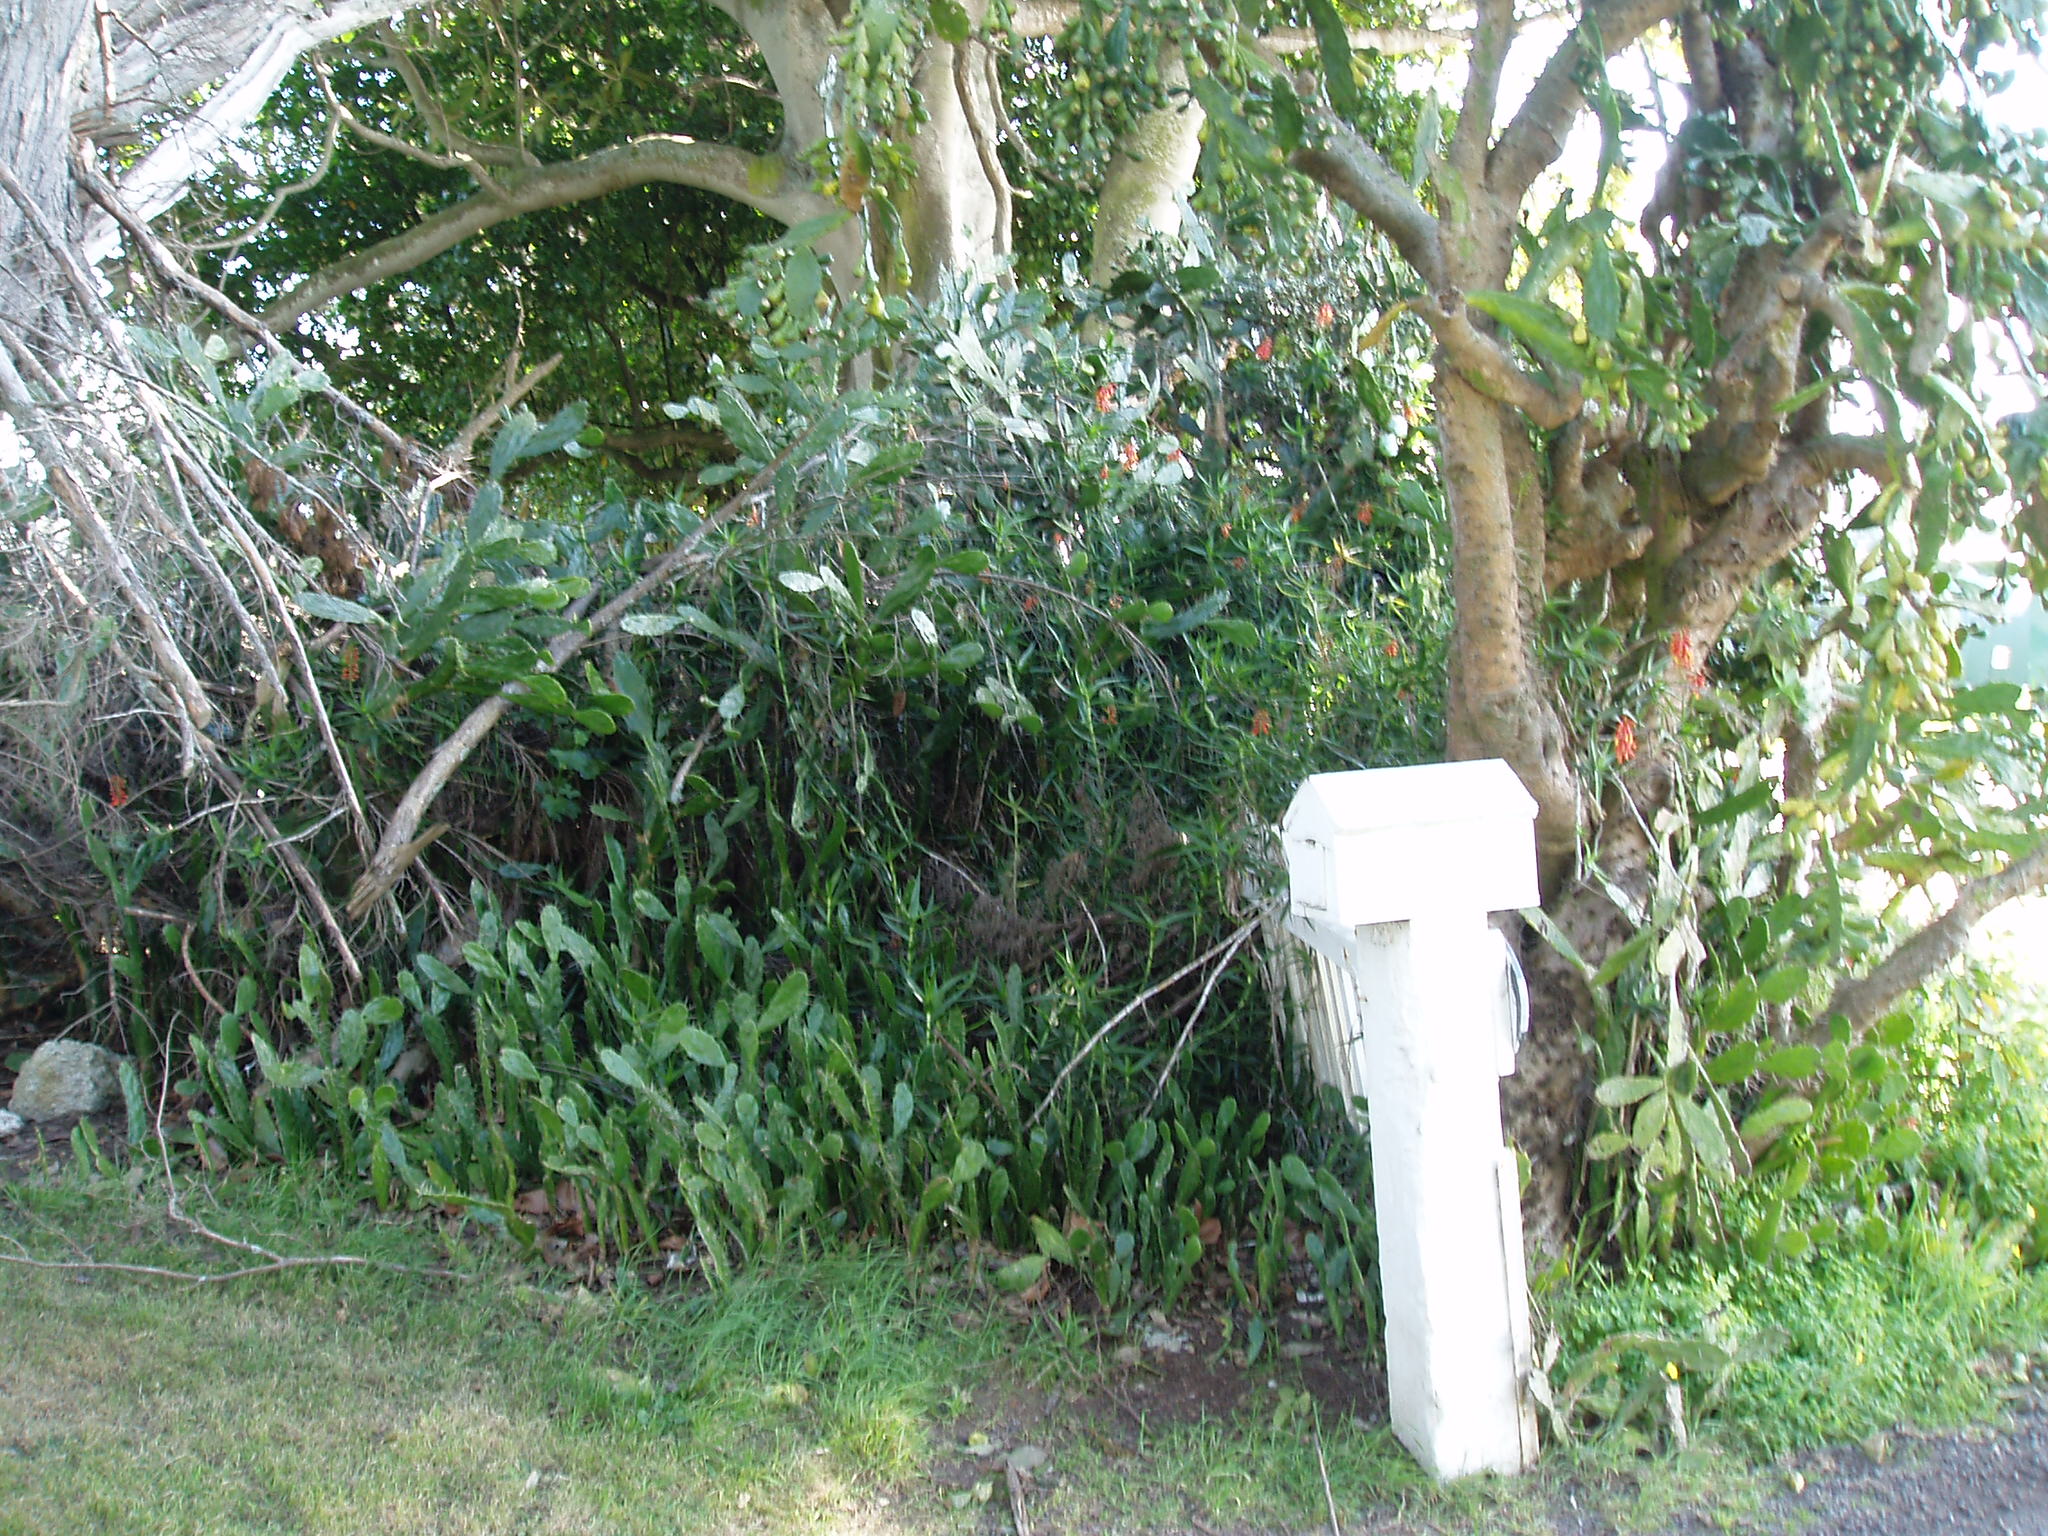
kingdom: Plantae
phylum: Tracheophyta
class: Magnoliopsida
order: Caryophyllales
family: Cactaceae
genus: Opuntia
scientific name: Opuntia monacantha
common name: Common pricklypear
